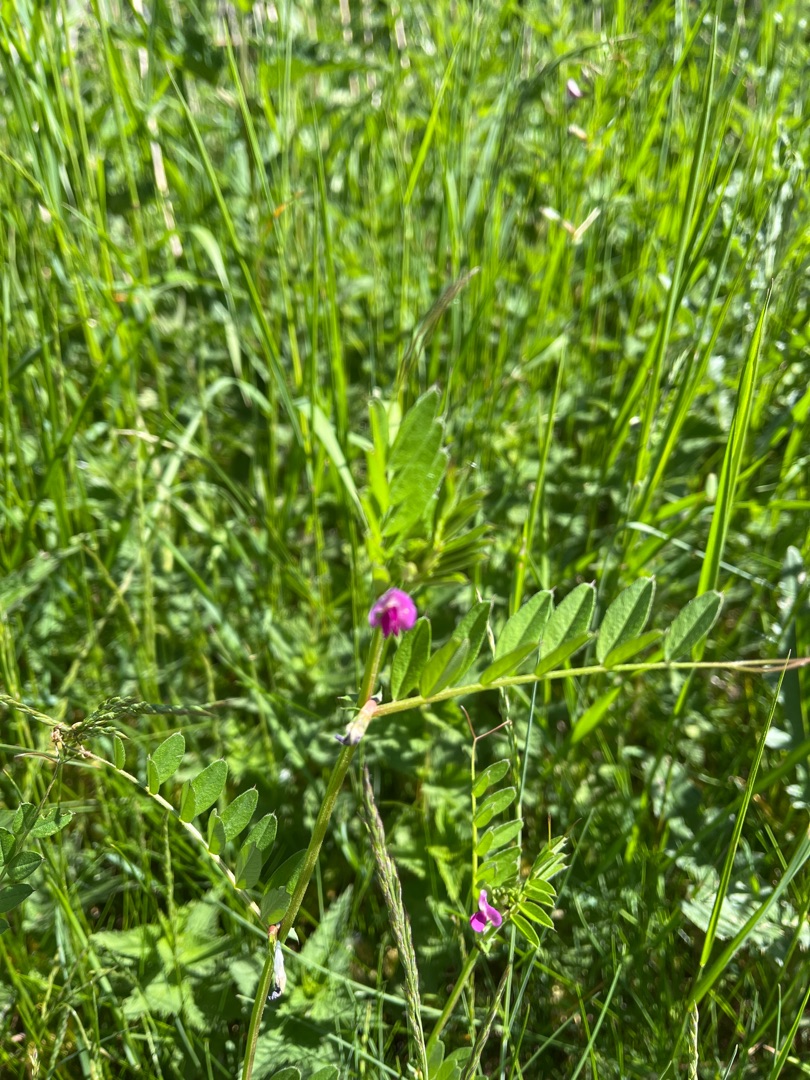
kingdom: Plantae
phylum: Tracheophyta
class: Magnoliopsida
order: Fabales
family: Fabaceae
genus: Vicia
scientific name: Vicia sativa
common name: Smalbladet vikke
